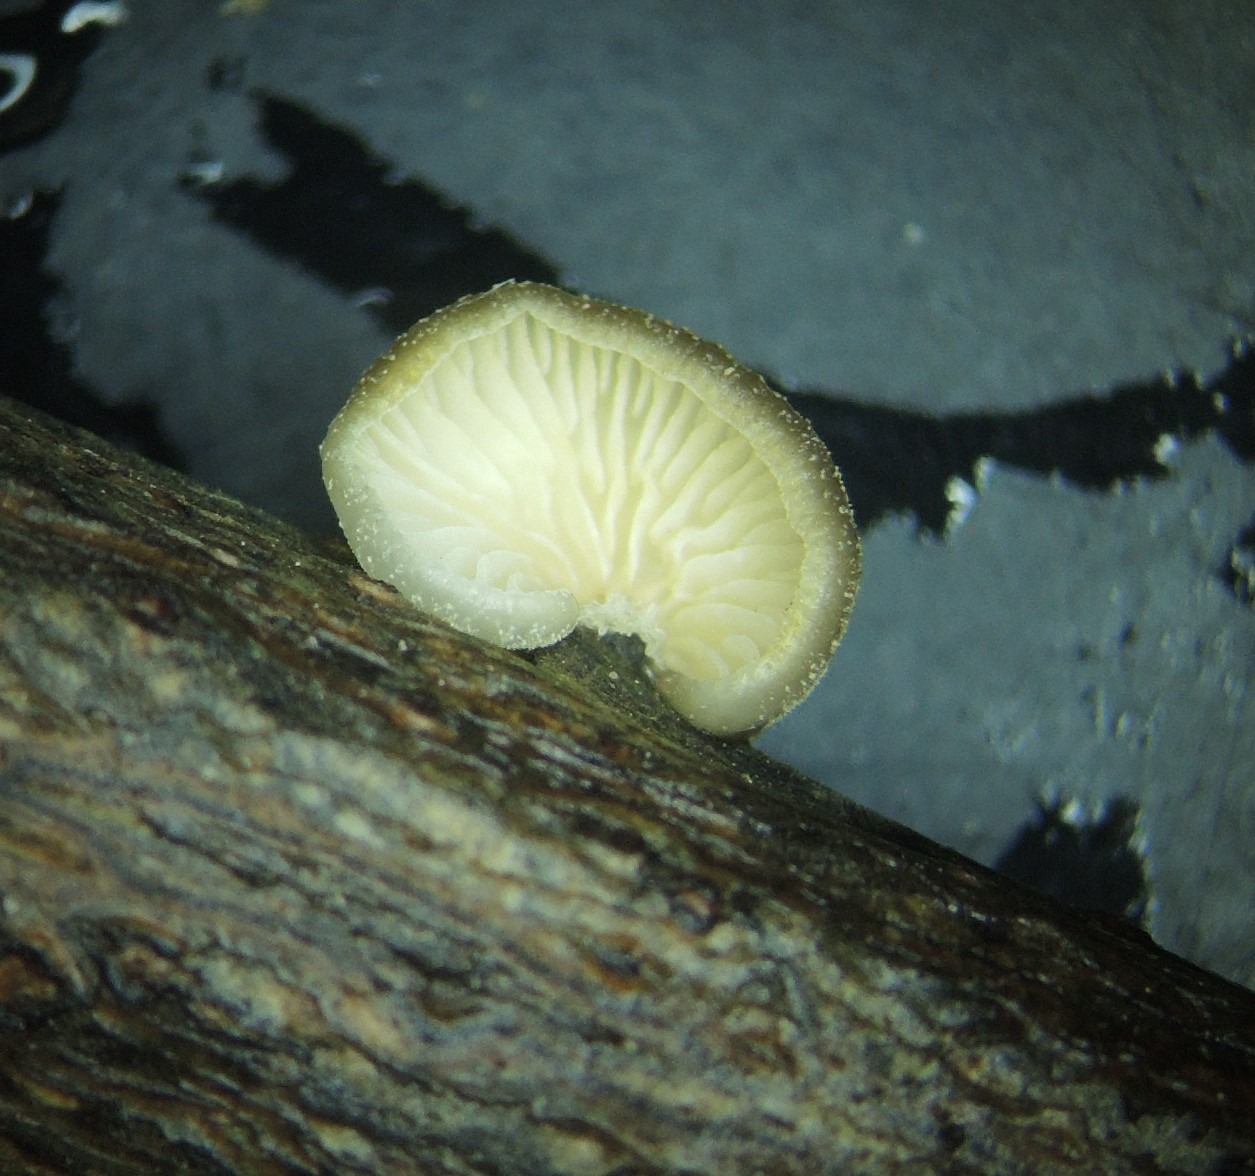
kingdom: Fungi
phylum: Basidiomycota
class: Agaricomycetes
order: Agaricales
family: Pleurotaceae
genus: Hohenbuehelia
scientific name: Hohenbuehelia fluxilis
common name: pile-filthat
